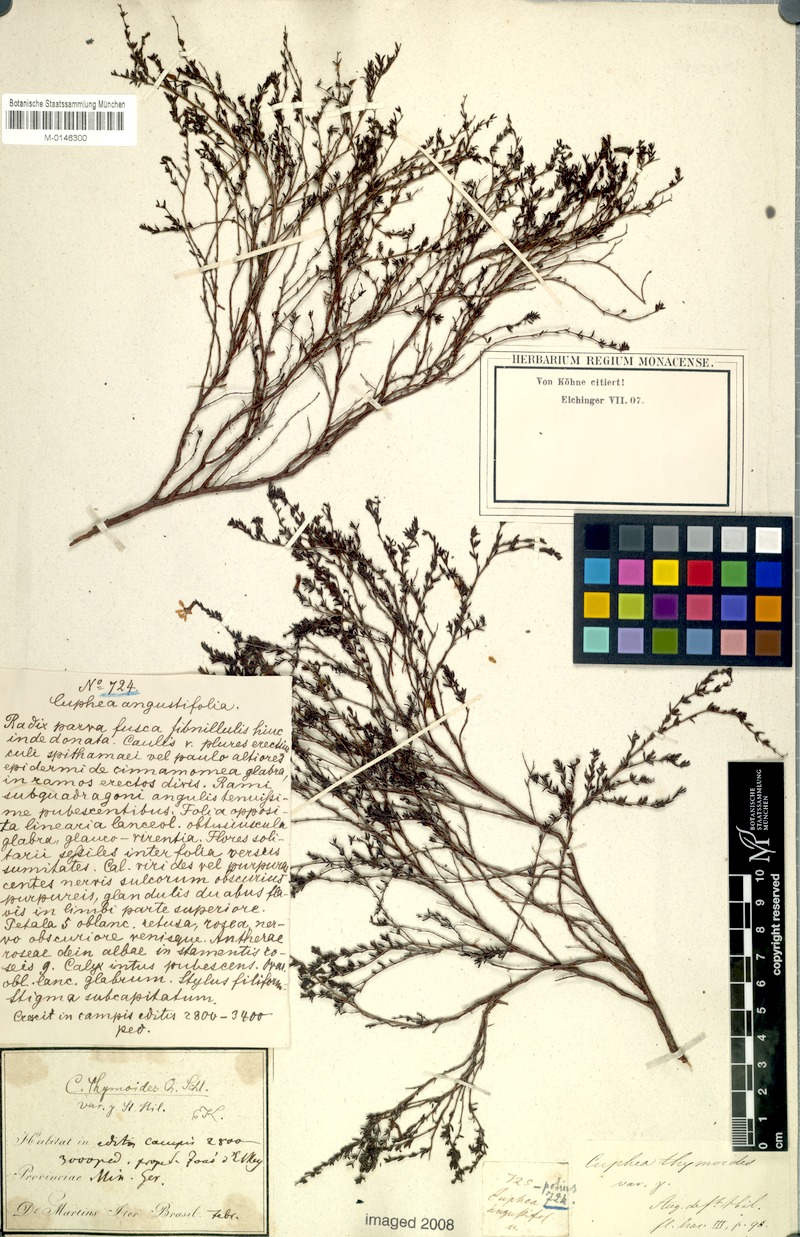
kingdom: Plantae
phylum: Tracheophyta
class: Magnoliopsida
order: Myrtales
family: Lythraceae
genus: Cuphea
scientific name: Cuphea thymoides
